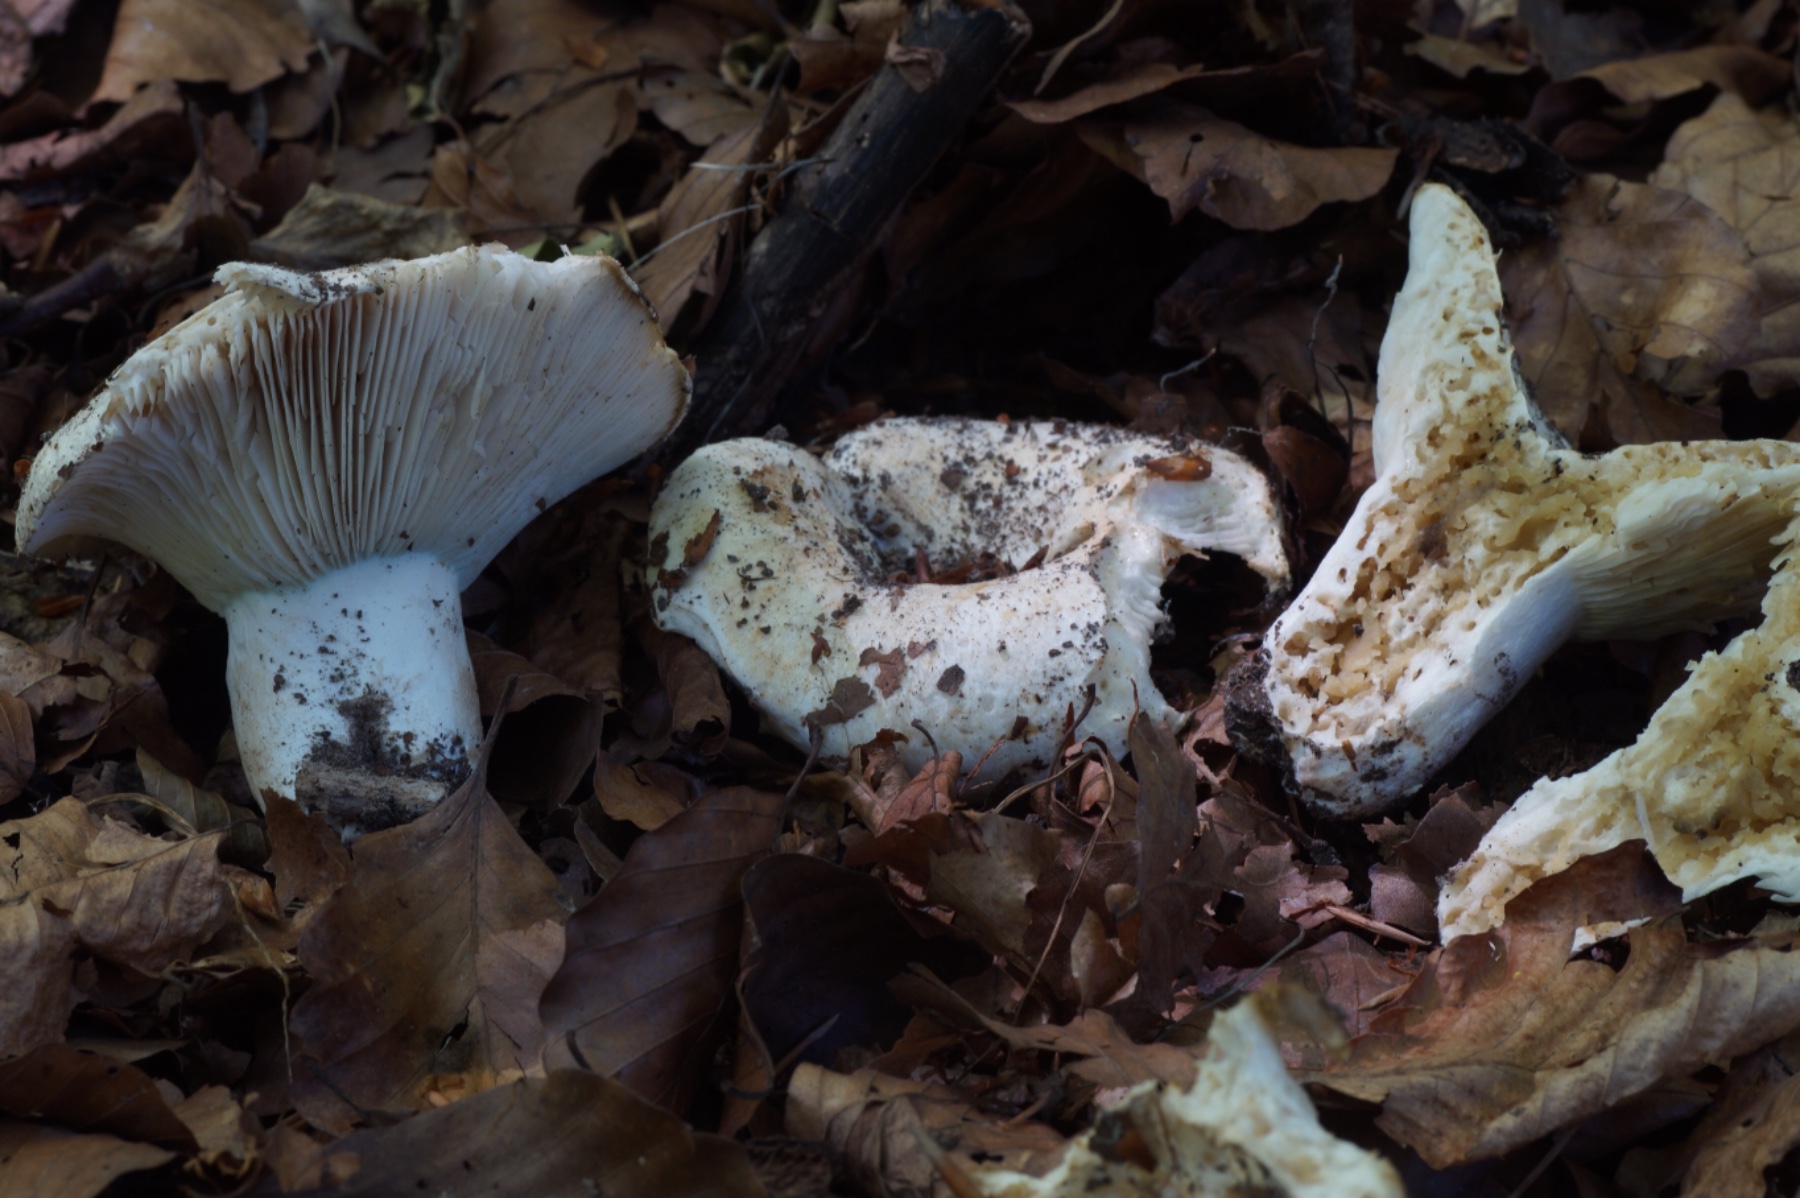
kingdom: Fungi
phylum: Basidiomycota
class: Agaricomycetes
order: Russulales
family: Russulaceae
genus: Russula
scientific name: Russula chloroides
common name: grønhalset tragt-skørhat
